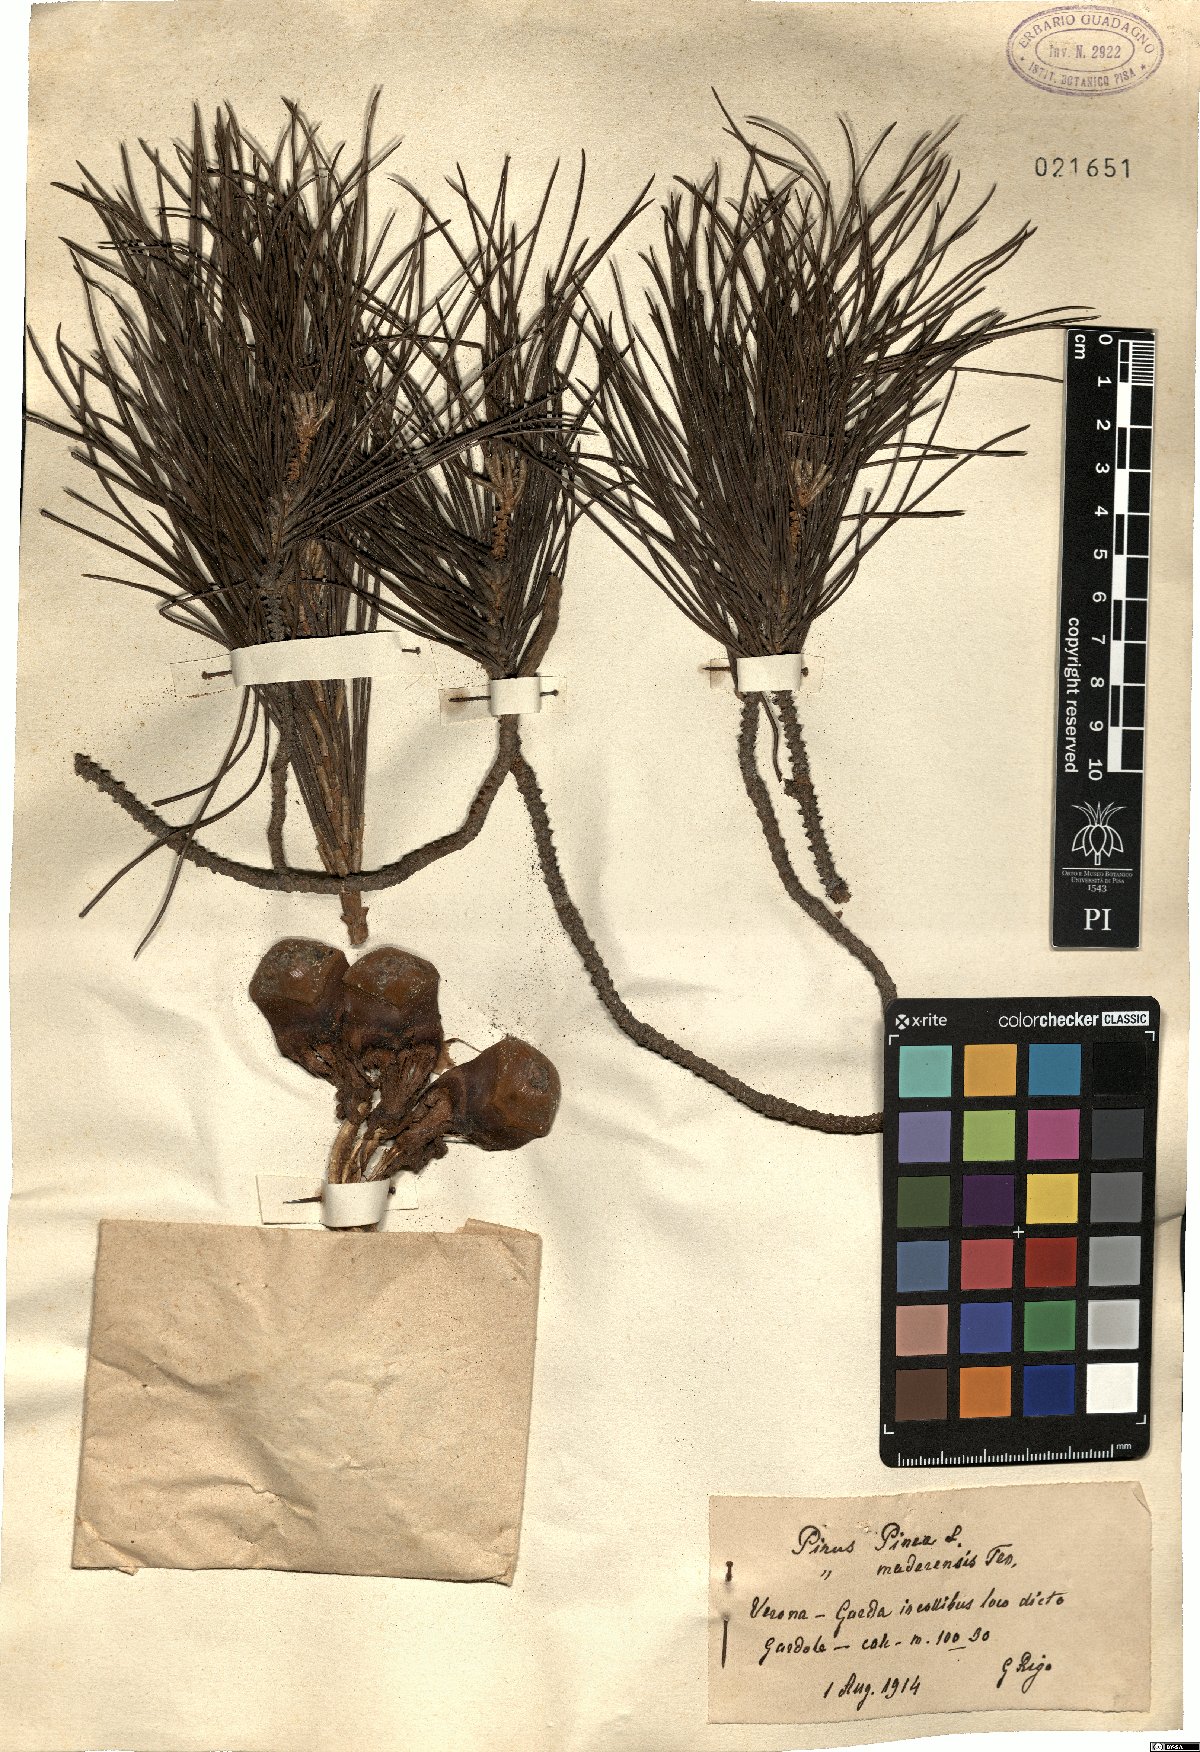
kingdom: Plantae
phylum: Tracheophyta
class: Pinopsida
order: Pinales
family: Pinaceae
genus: Pinus
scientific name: Pinus pinea
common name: Italian stone pine
